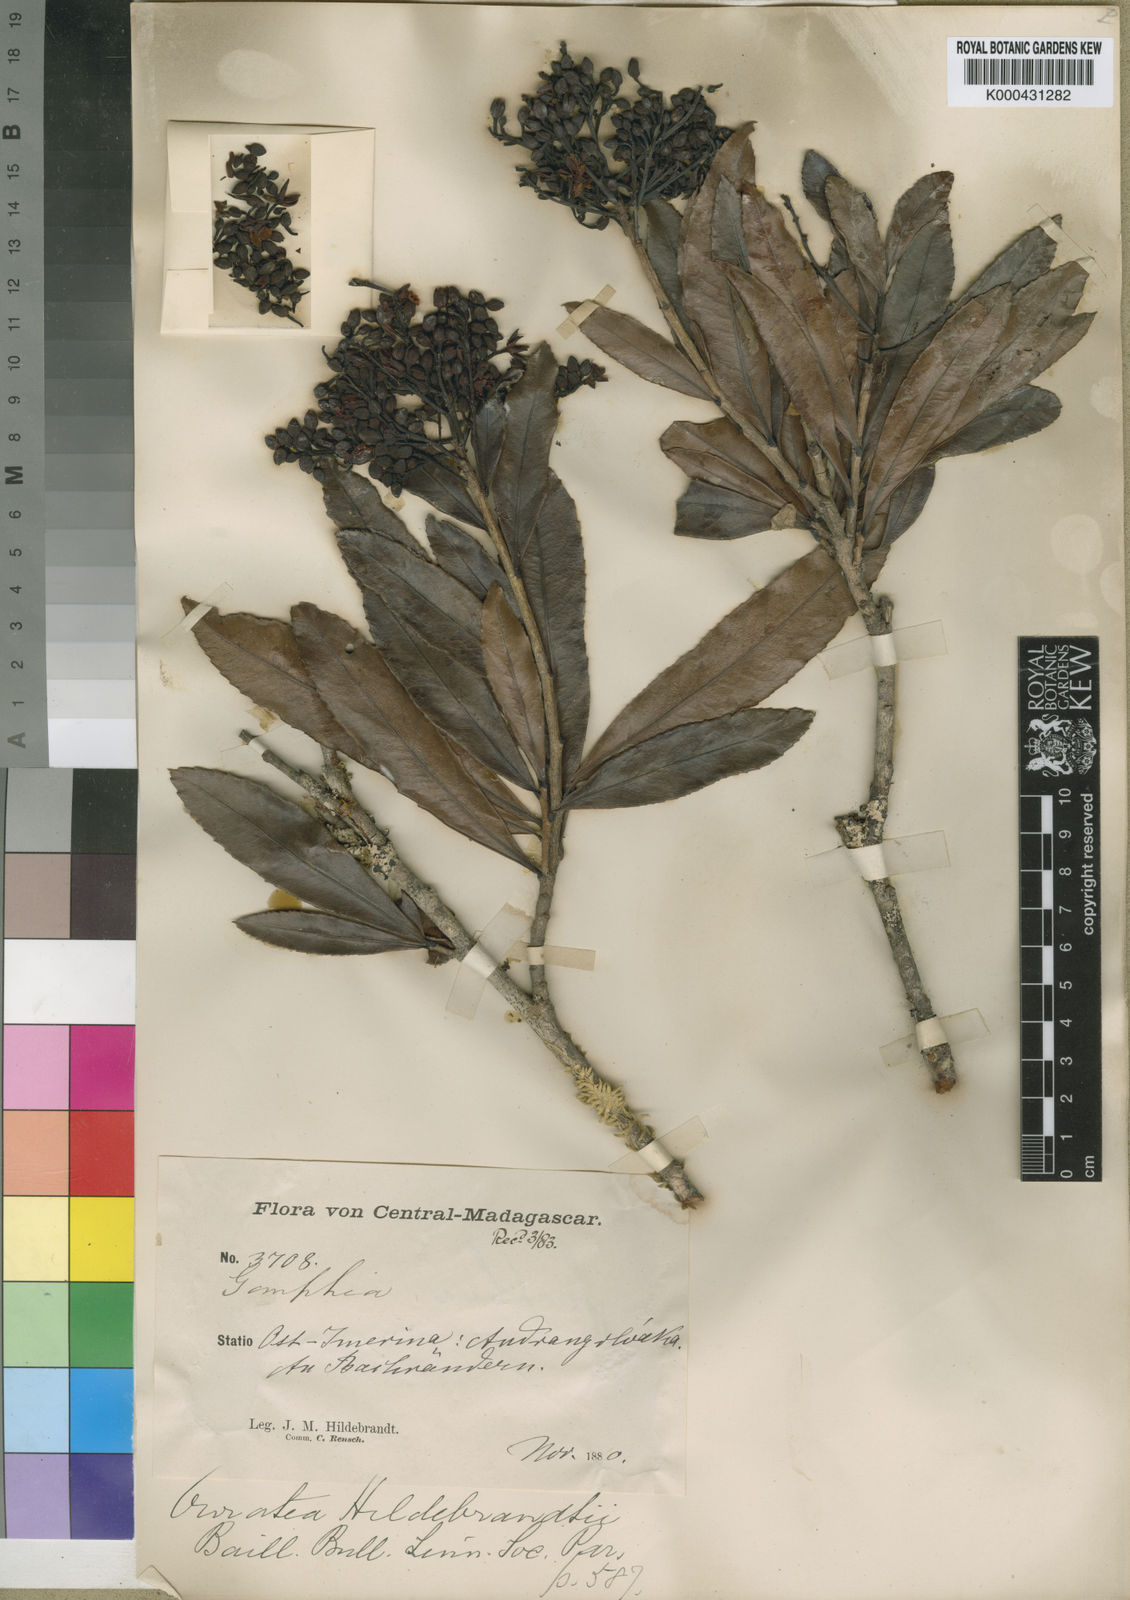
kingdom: Plantae
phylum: Tracheophyta
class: Magnoliopsida
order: Malpighiales
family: Ochnaceae
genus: Campylospermum
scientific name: Campylospermum deltoideum
